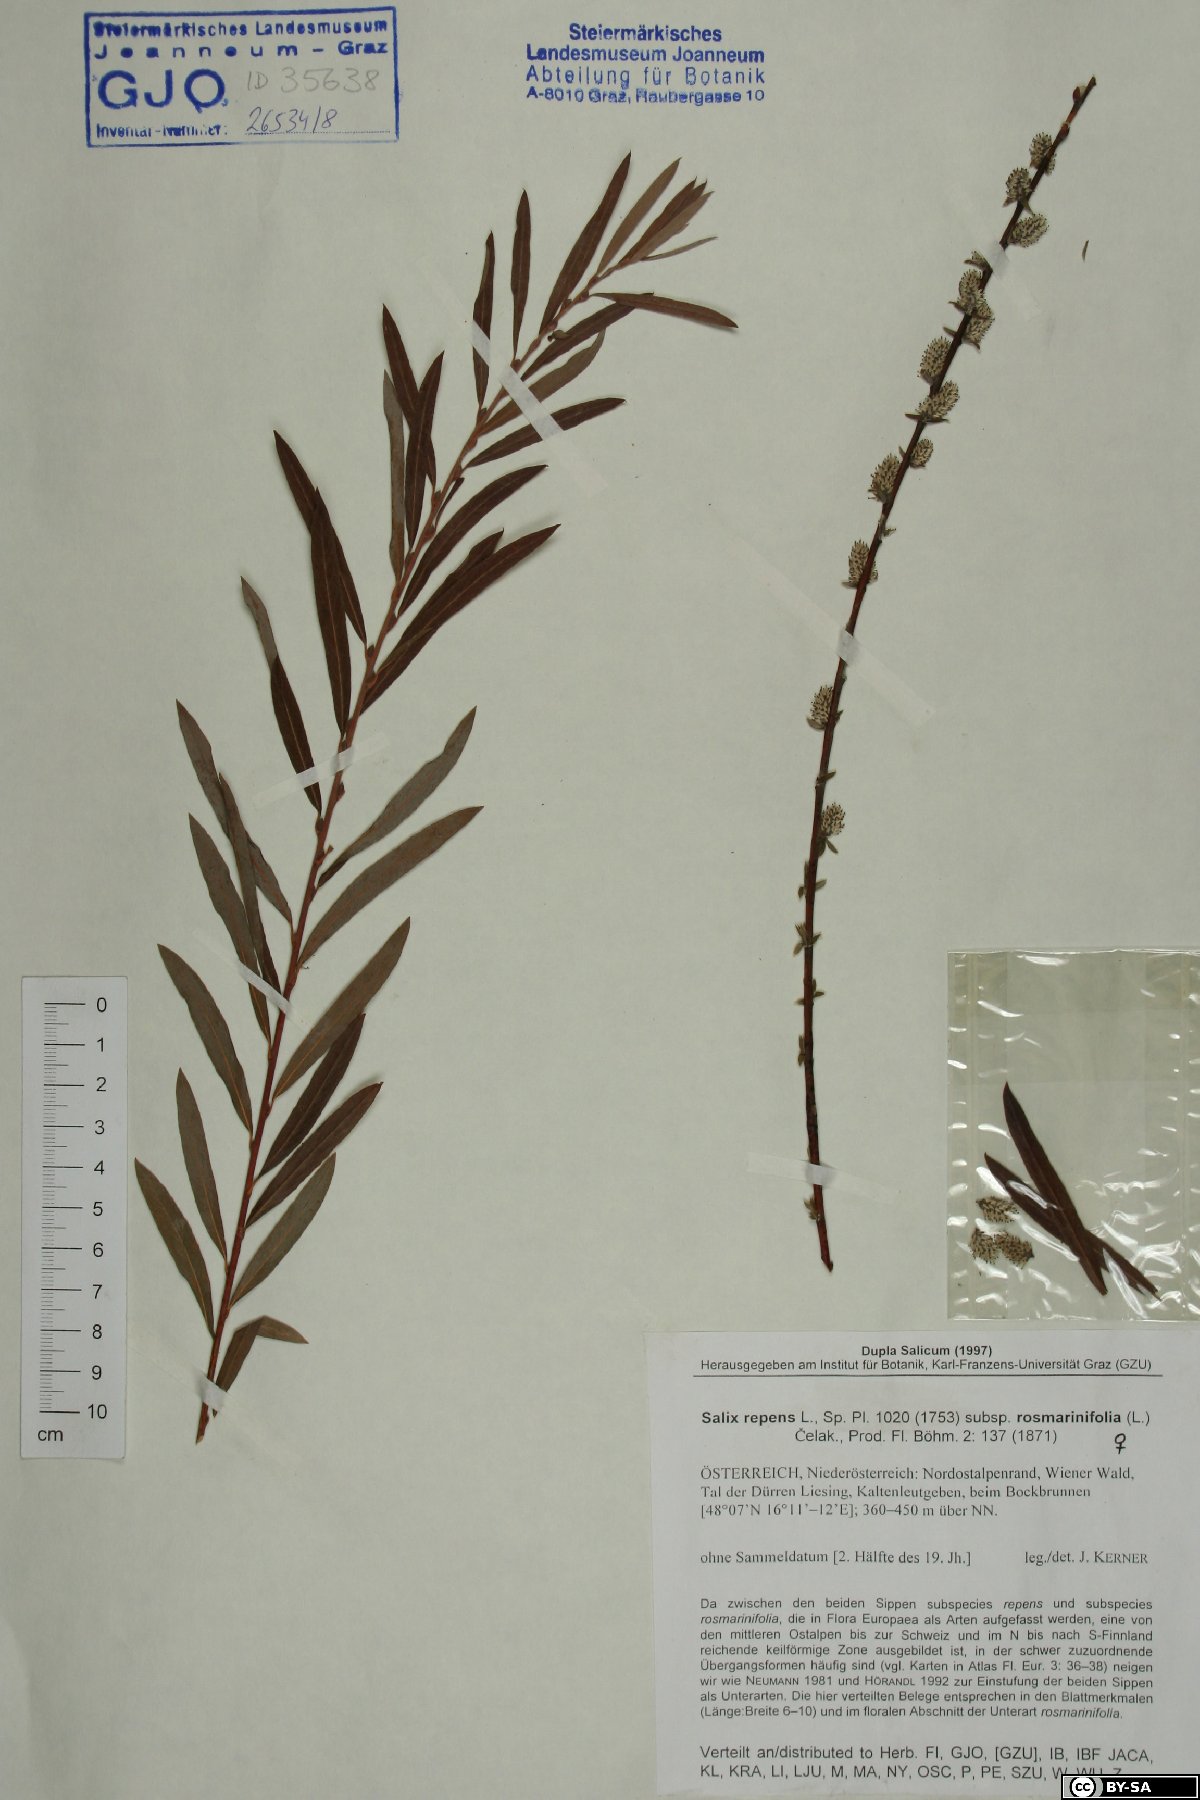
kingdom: Plantae
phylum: Tracheophyta
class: Magnoliopsida
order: Malpighiales
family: Salicaceae
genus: Salix
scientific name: Salix repens
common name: Creeping willow
